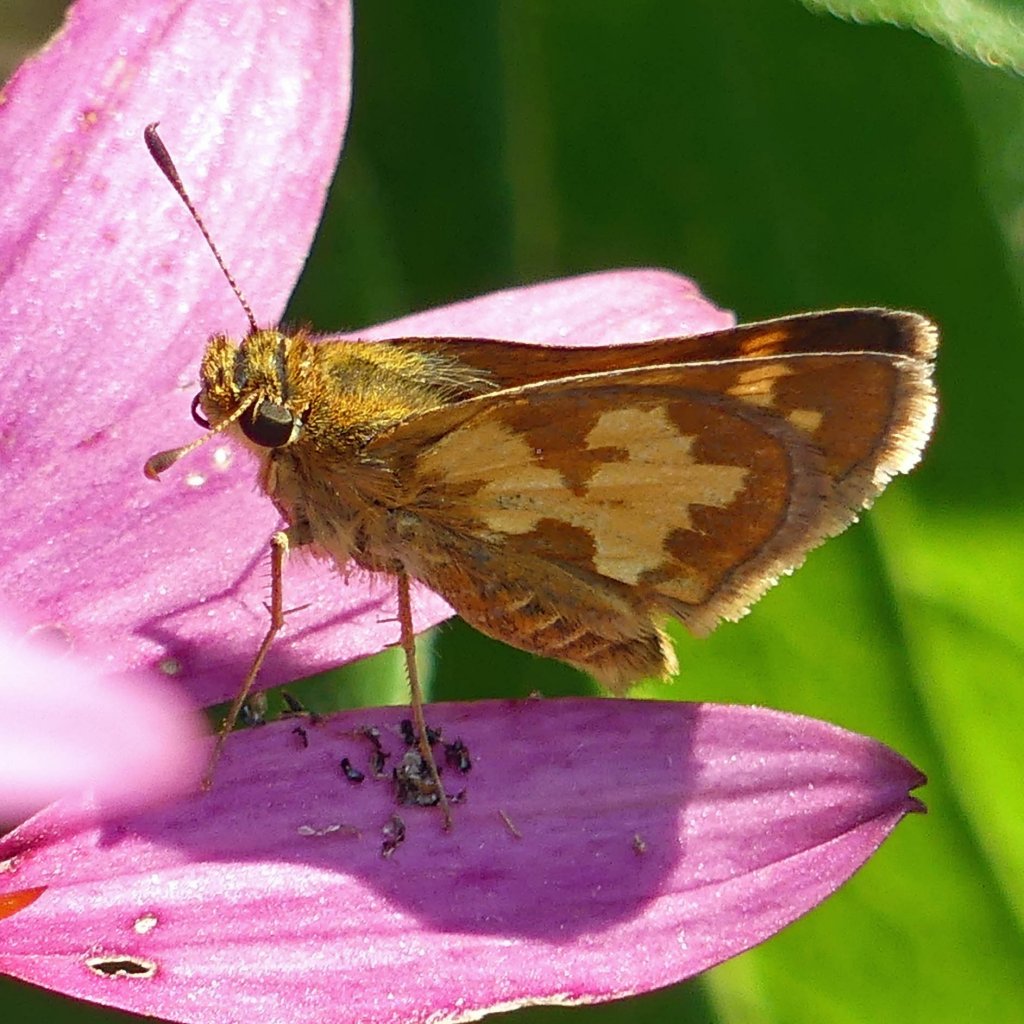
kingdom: Animalia
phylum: Arthropoda
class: Insecta
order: Lepidoptera
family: Hesperiidae
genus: Polites
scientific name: Polites coras
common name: Peck's Skipper
